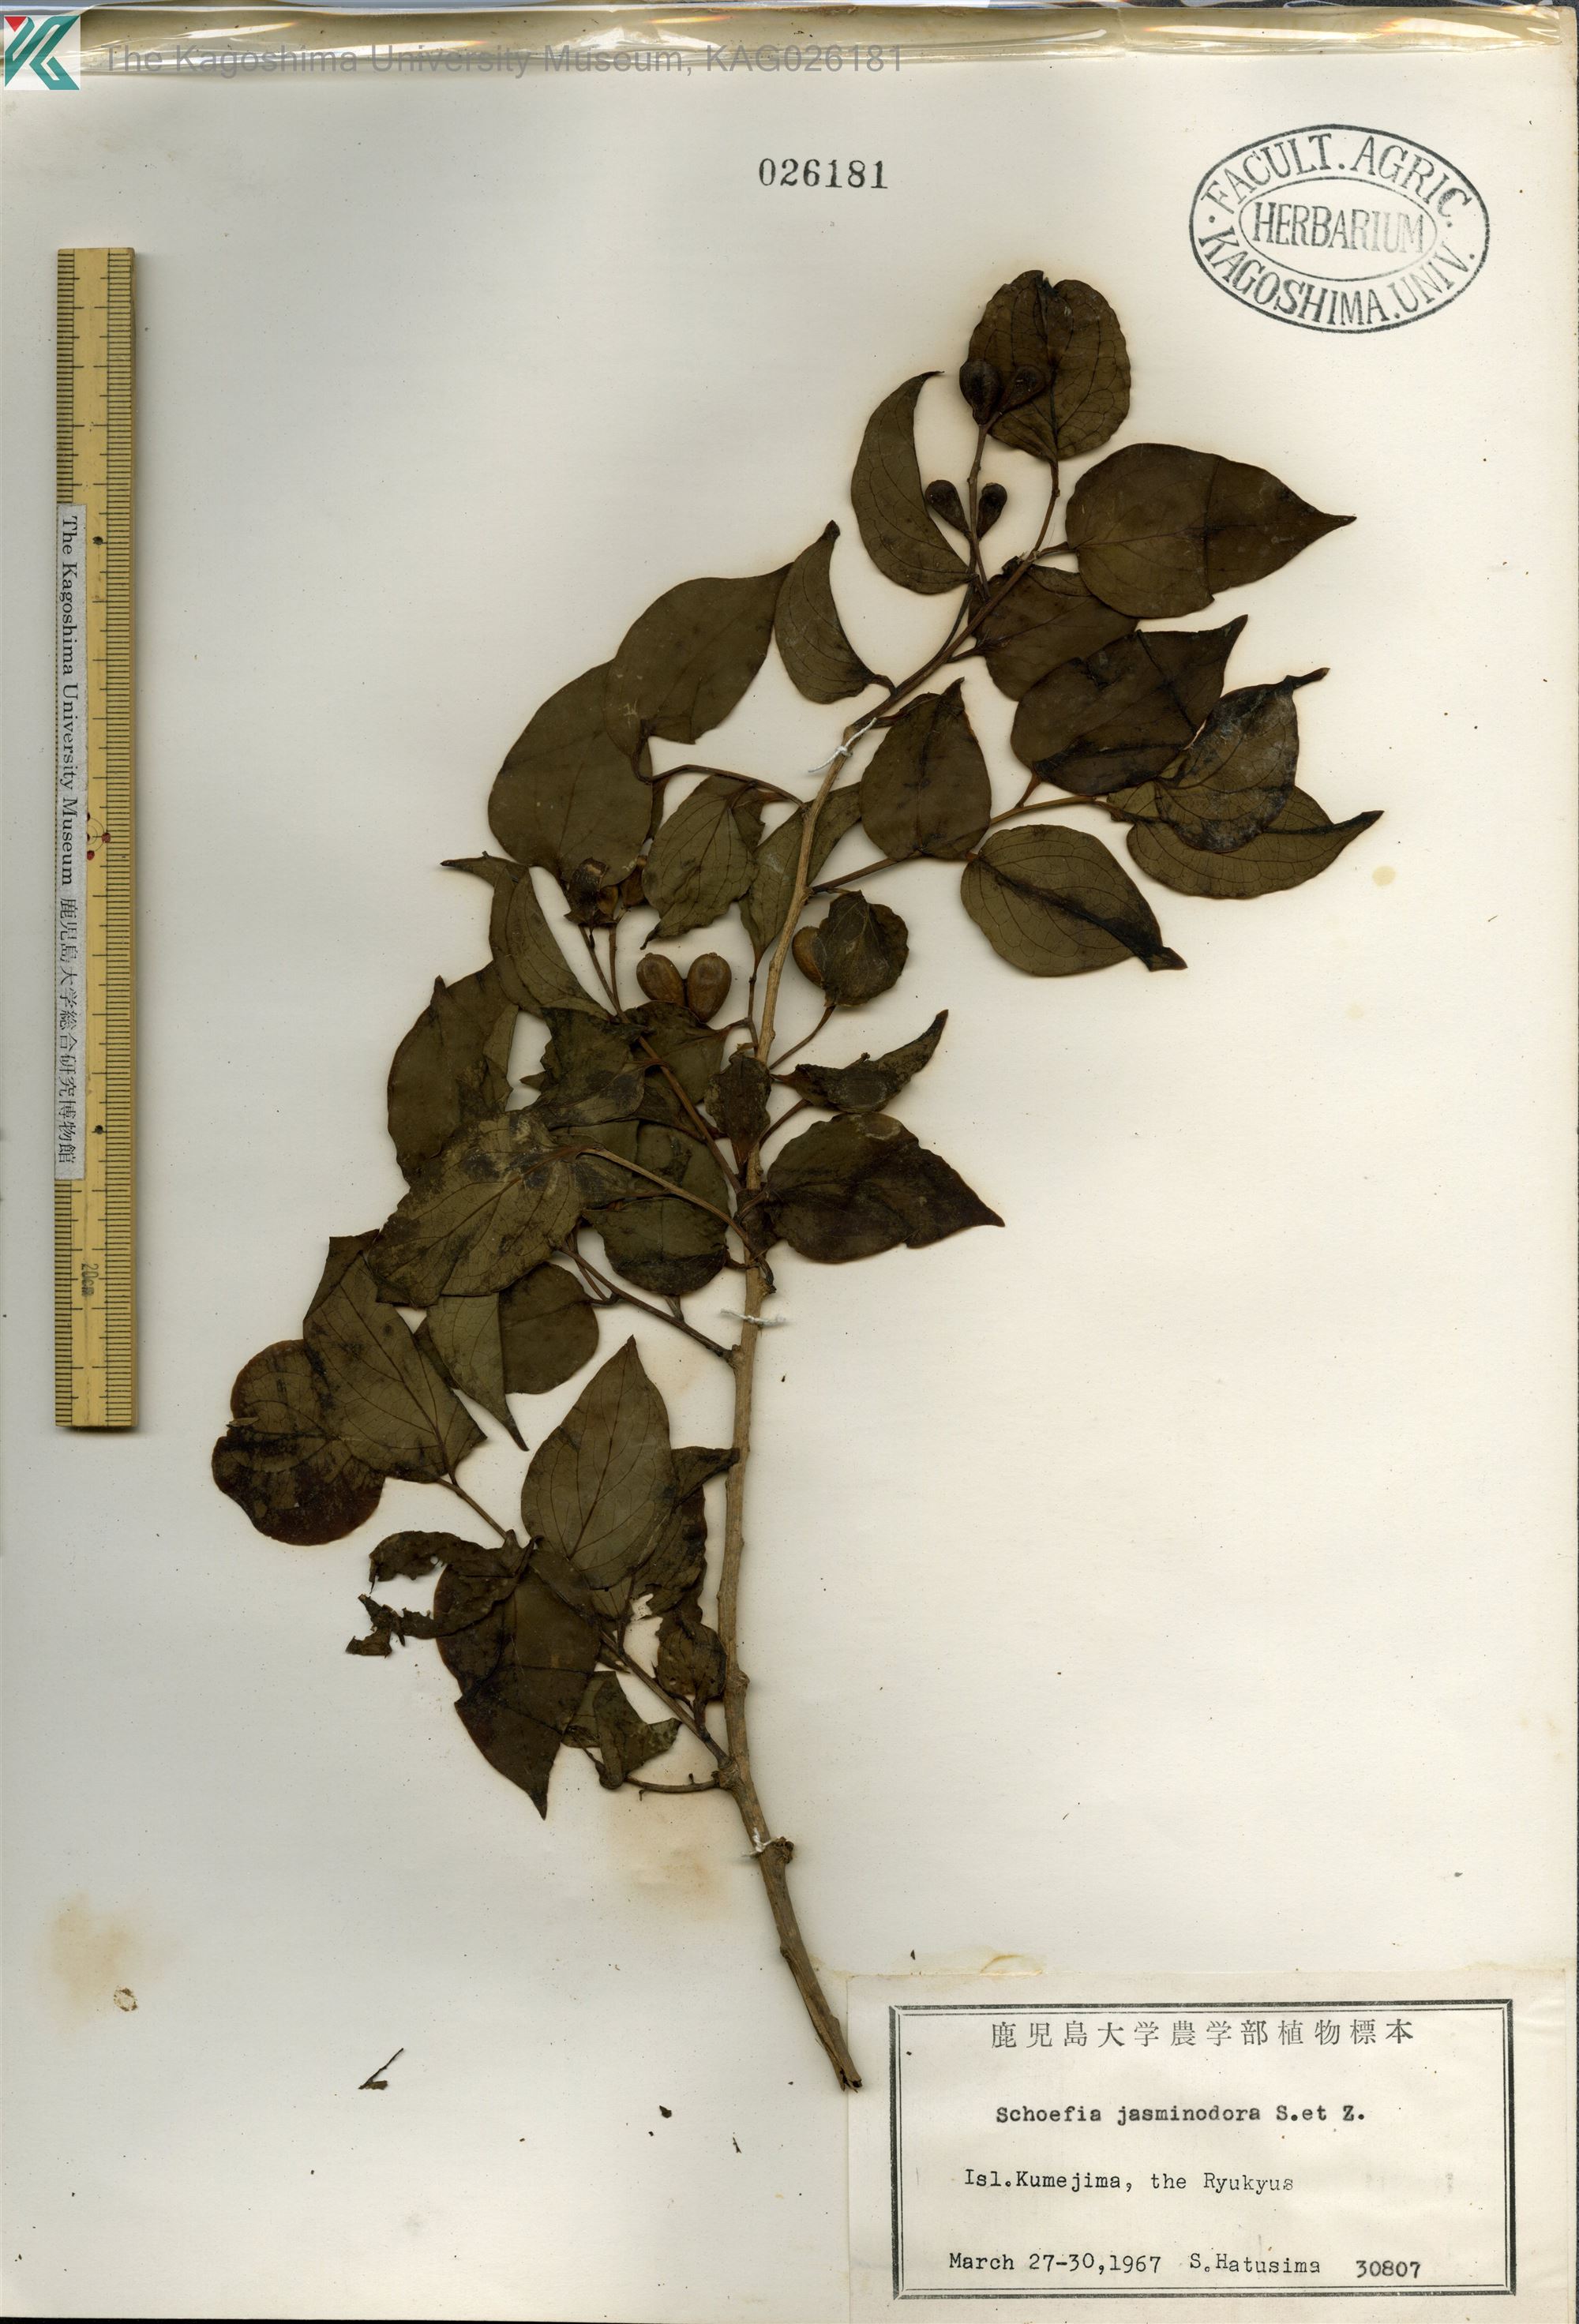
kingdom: Plantae
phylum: Tracheophyta
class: Magnoliopsida
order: Santalales
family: Schoepfiaceae
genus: Schoepfia
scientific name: Schoepfia jasminodora
